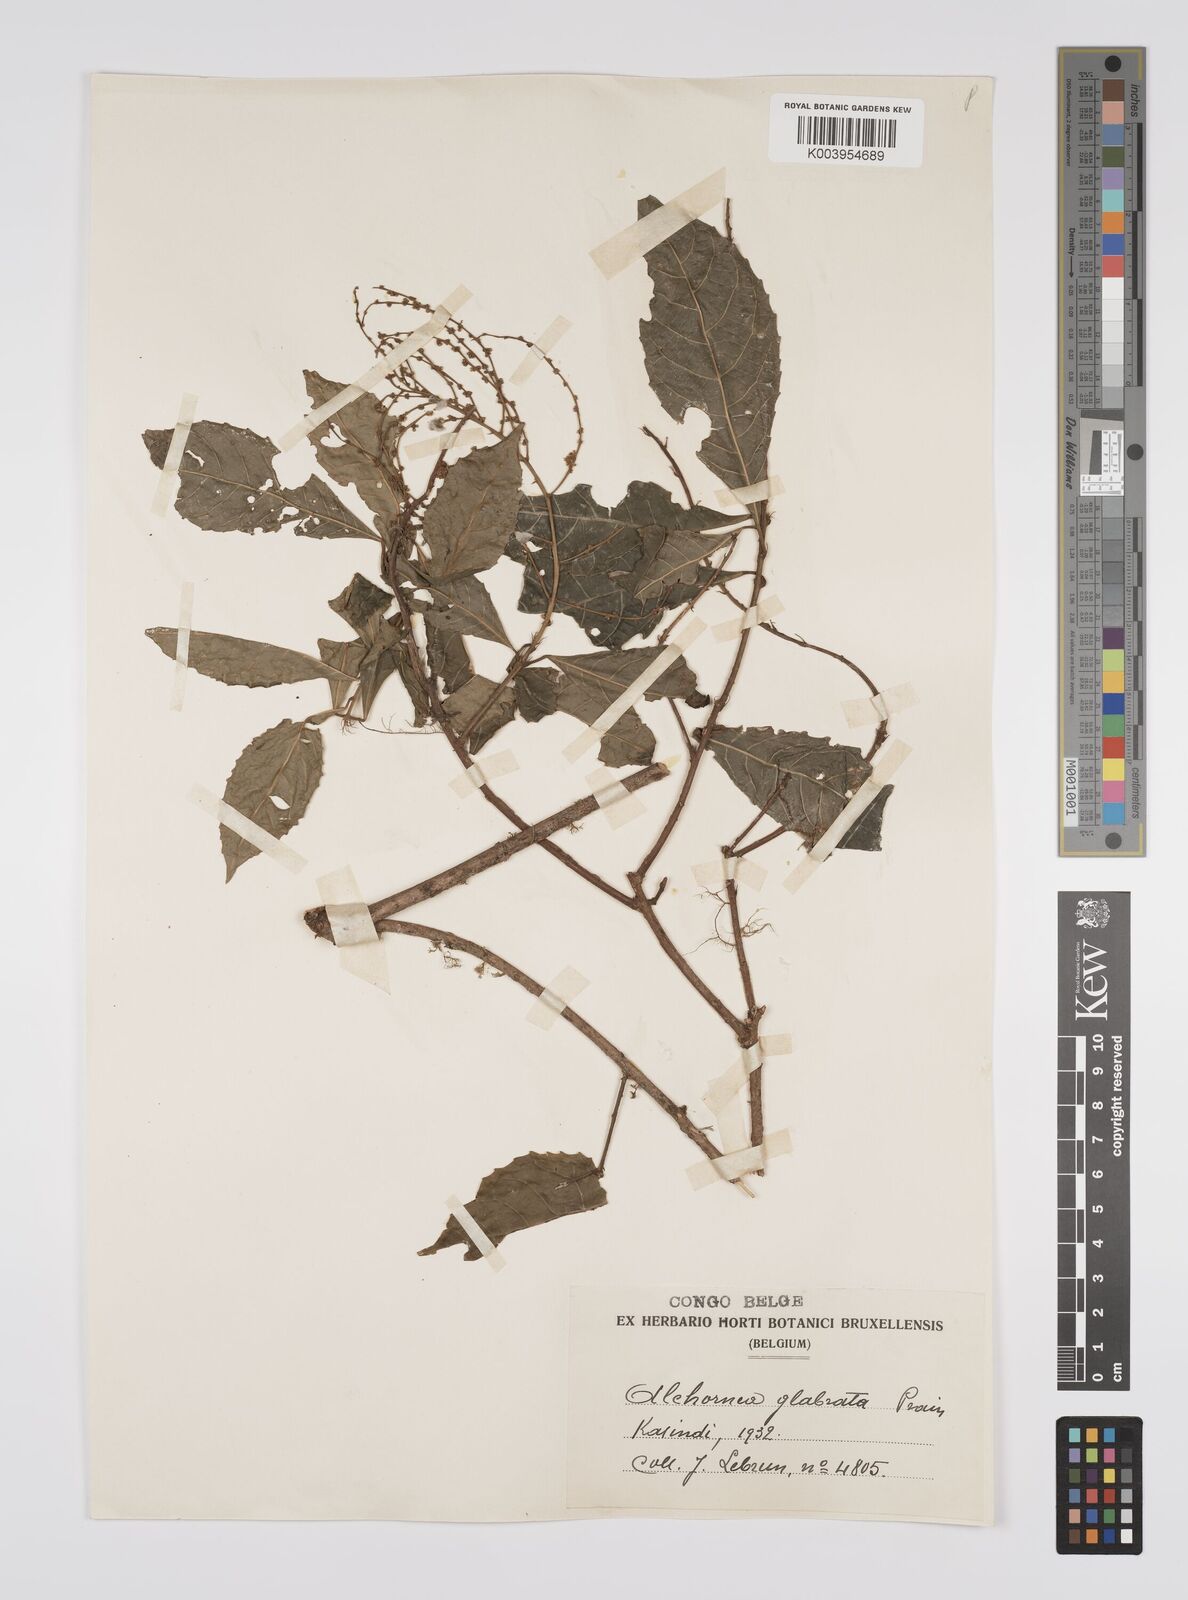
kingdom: Plantae
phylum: Tracheophyta
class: Magnoliopsida
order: Malpighiales
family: Euphorbiaceae
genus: Alchornea
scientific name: Alchornea hirtella
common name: Forest bead-string
